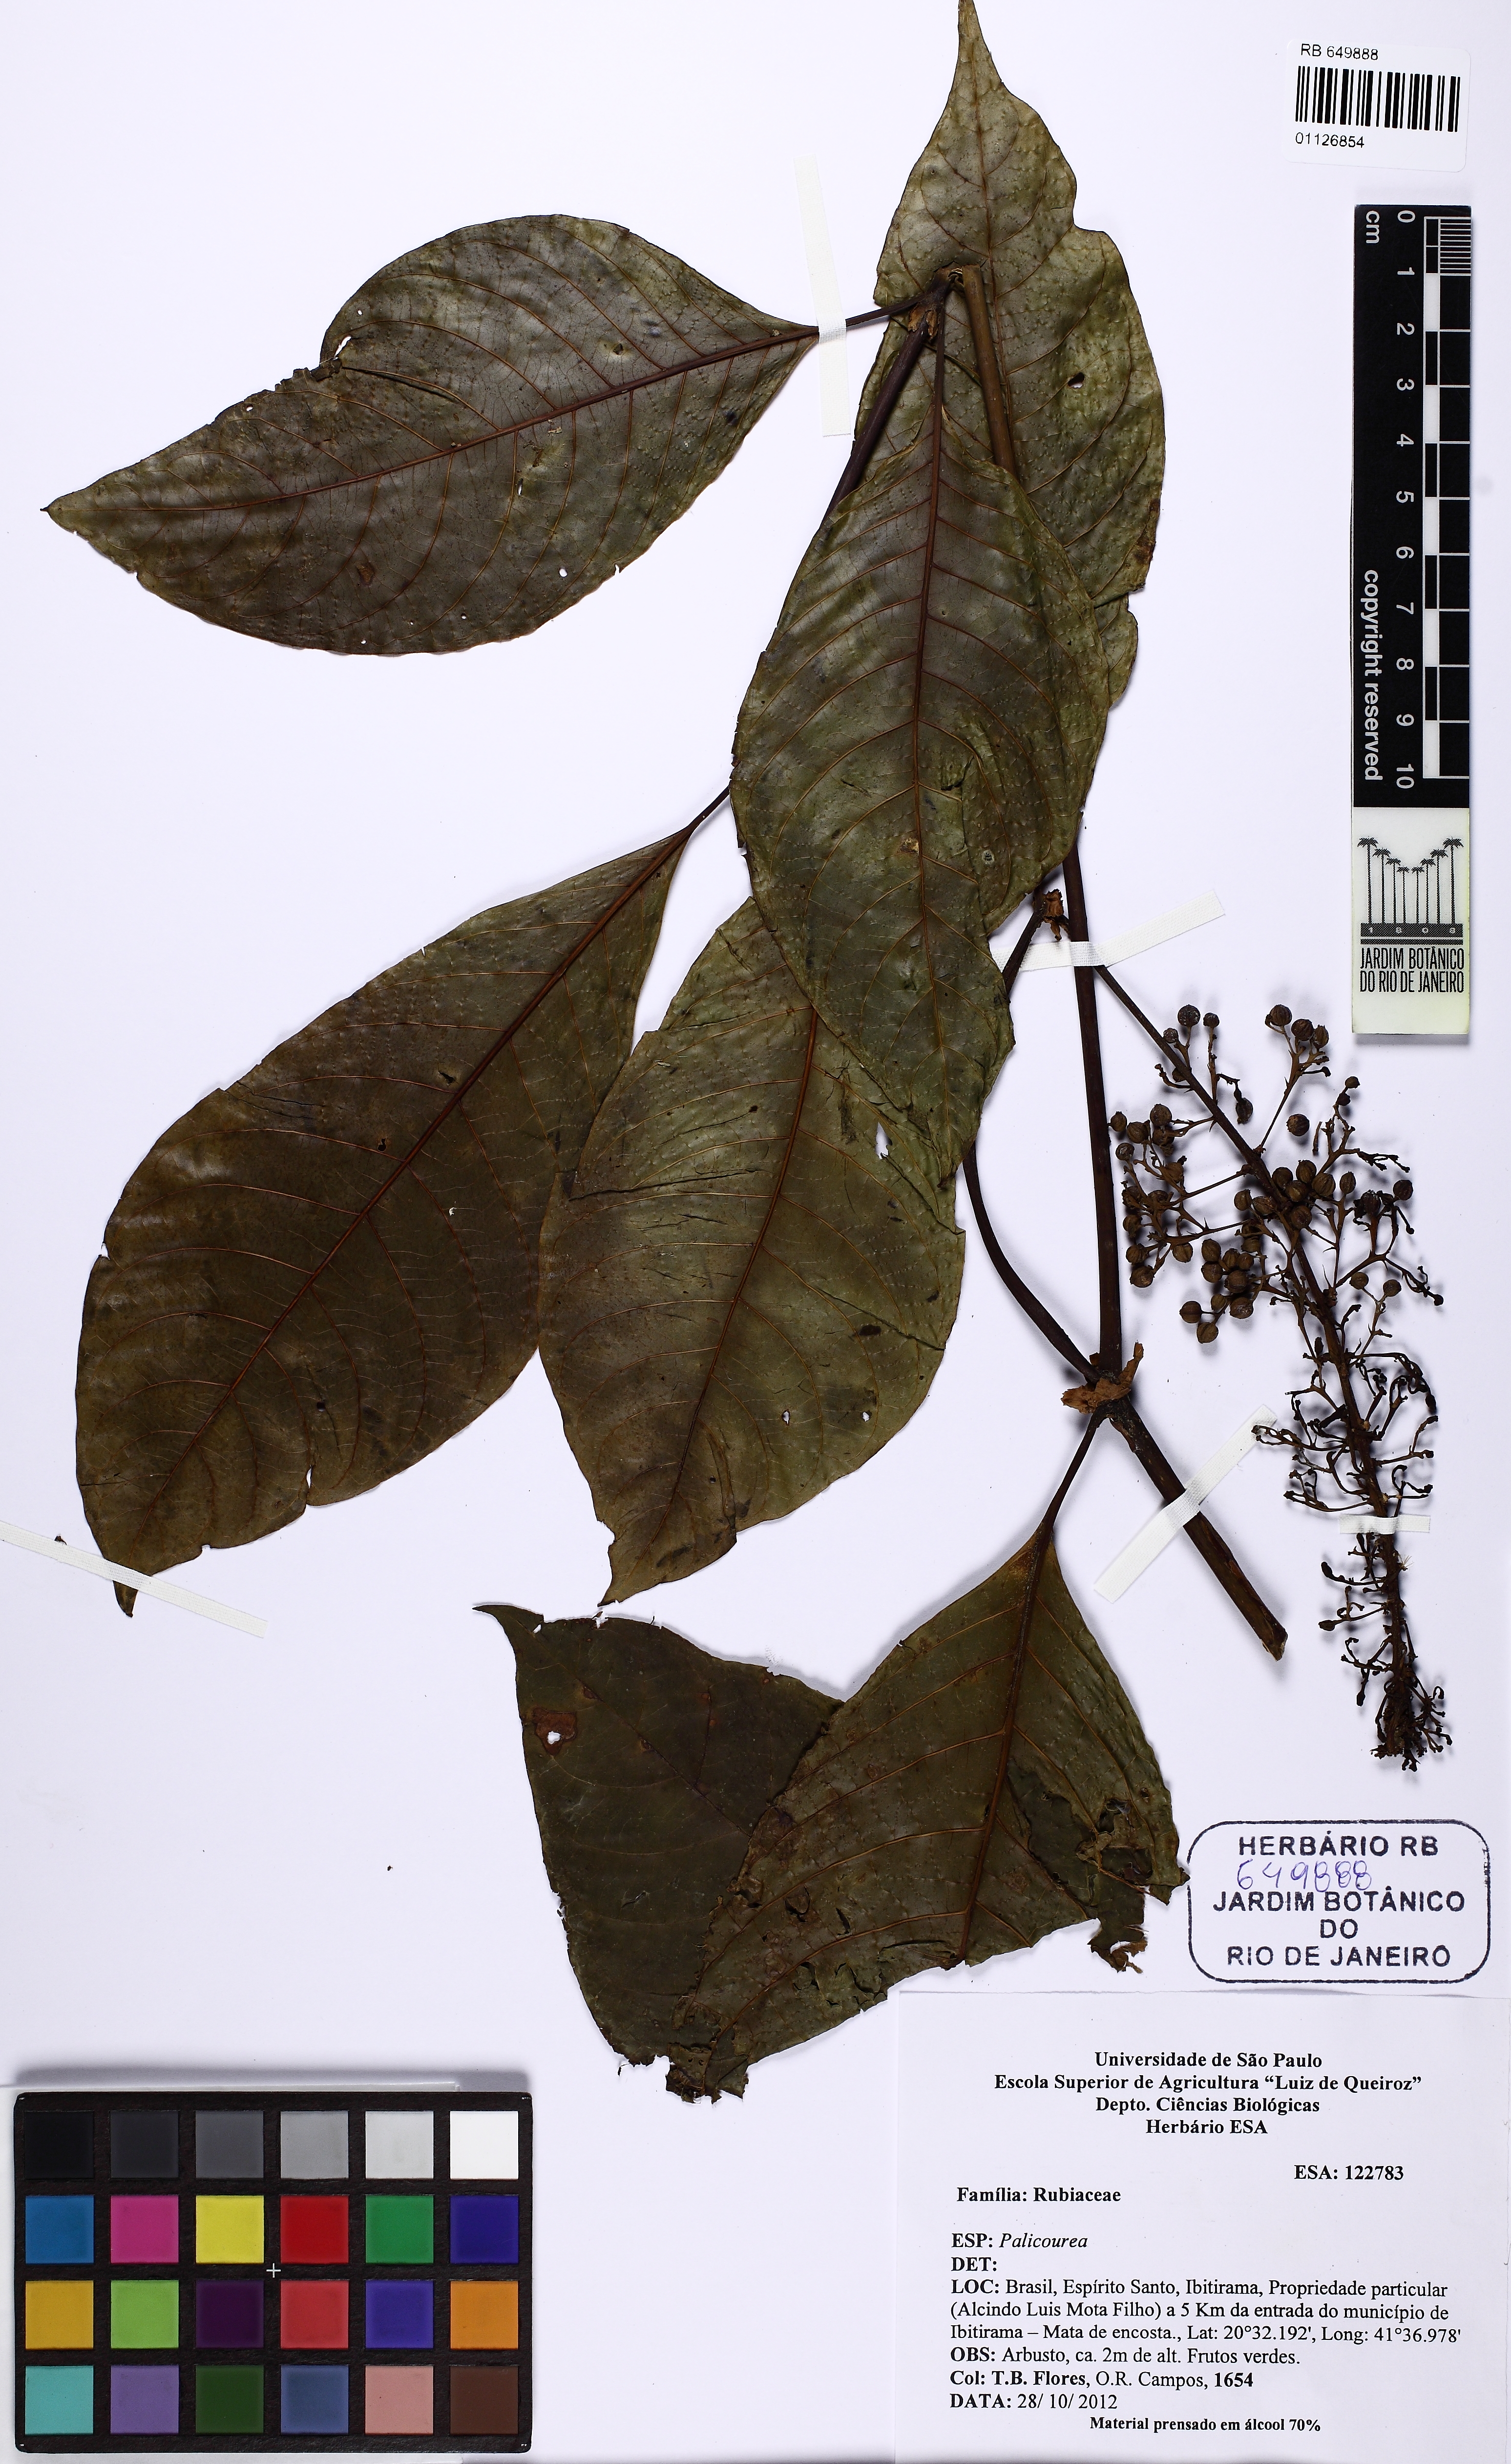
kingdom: Plantae
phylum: Tracheophyta
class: Magnoliopsida
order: Gentianales
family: Rubiaceae
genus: Palicourea
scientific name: Palicourea
